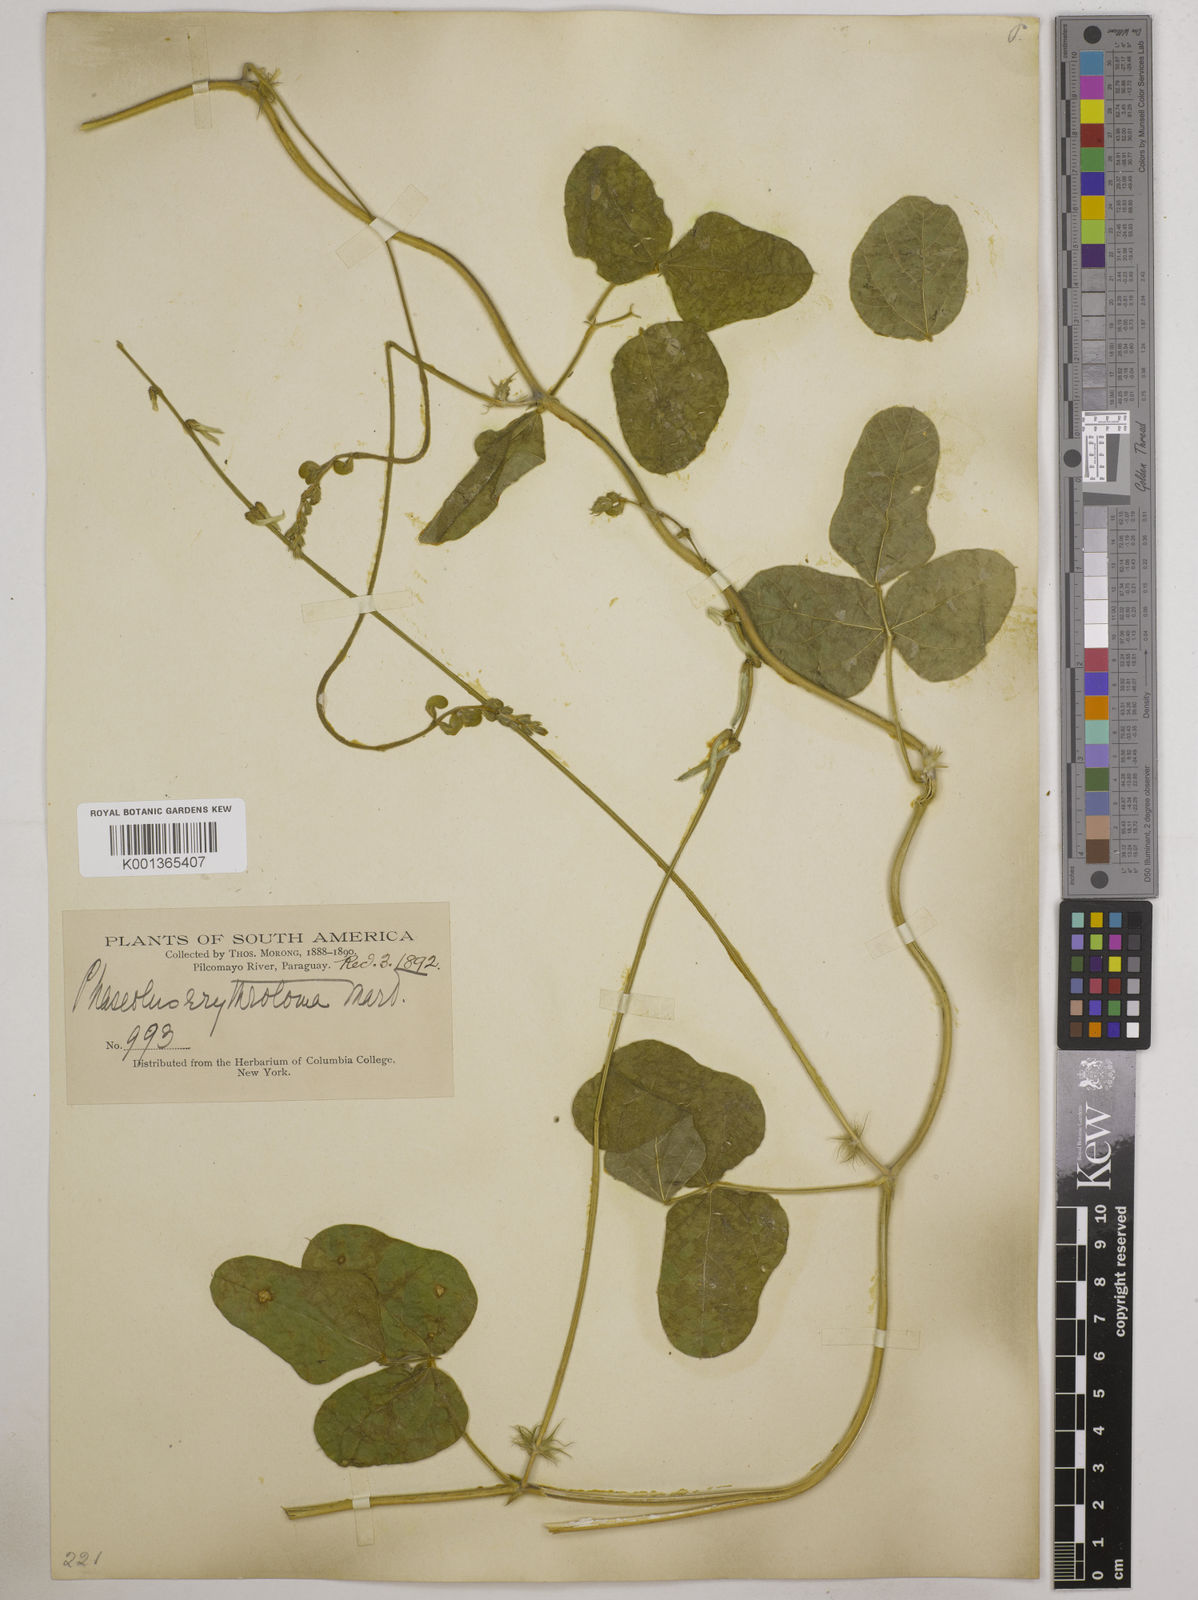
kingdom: Plantae
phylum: Tracheophyta
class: Magnoliopsida
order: Fabales
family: Fabaceae
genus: Macroptilium
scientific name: Macroptilium erythroloma
